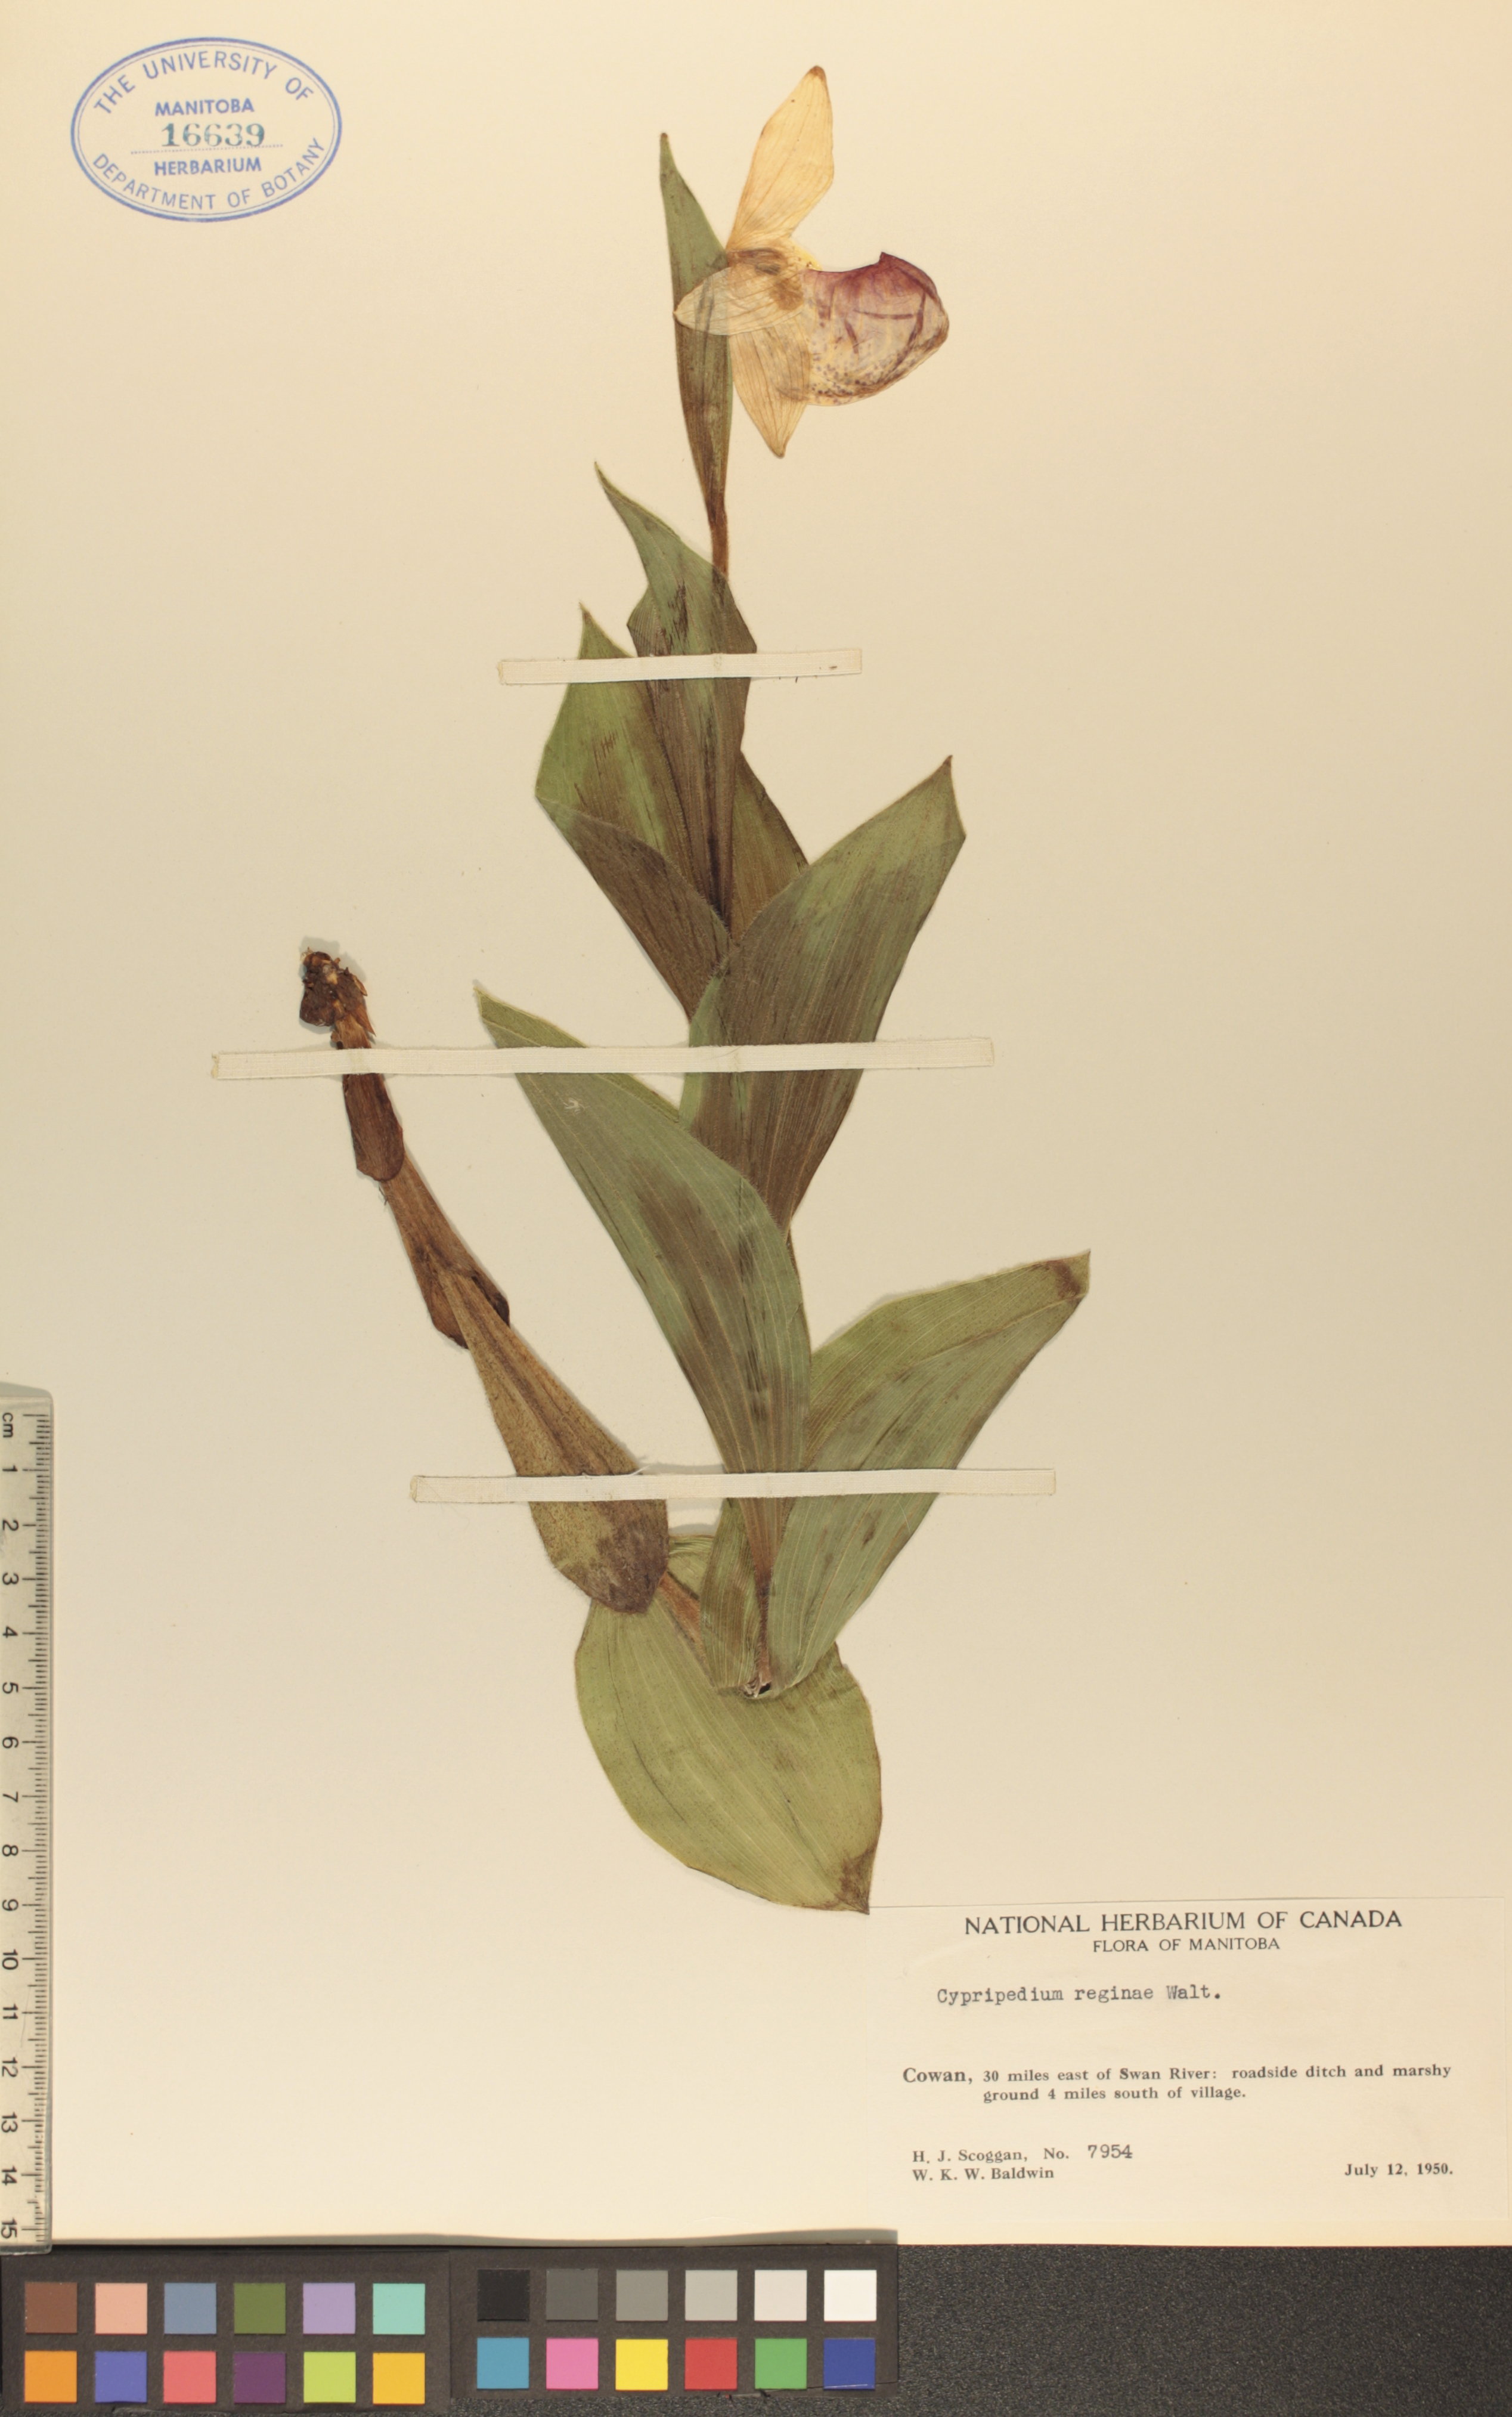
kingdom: Plantae
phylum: Tracheophyta
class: Liliopsida
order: Asparagales
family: Orchidaceae
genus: Cypripedium
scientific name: Cypripedium reginae
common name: Queen lady's-slipper
